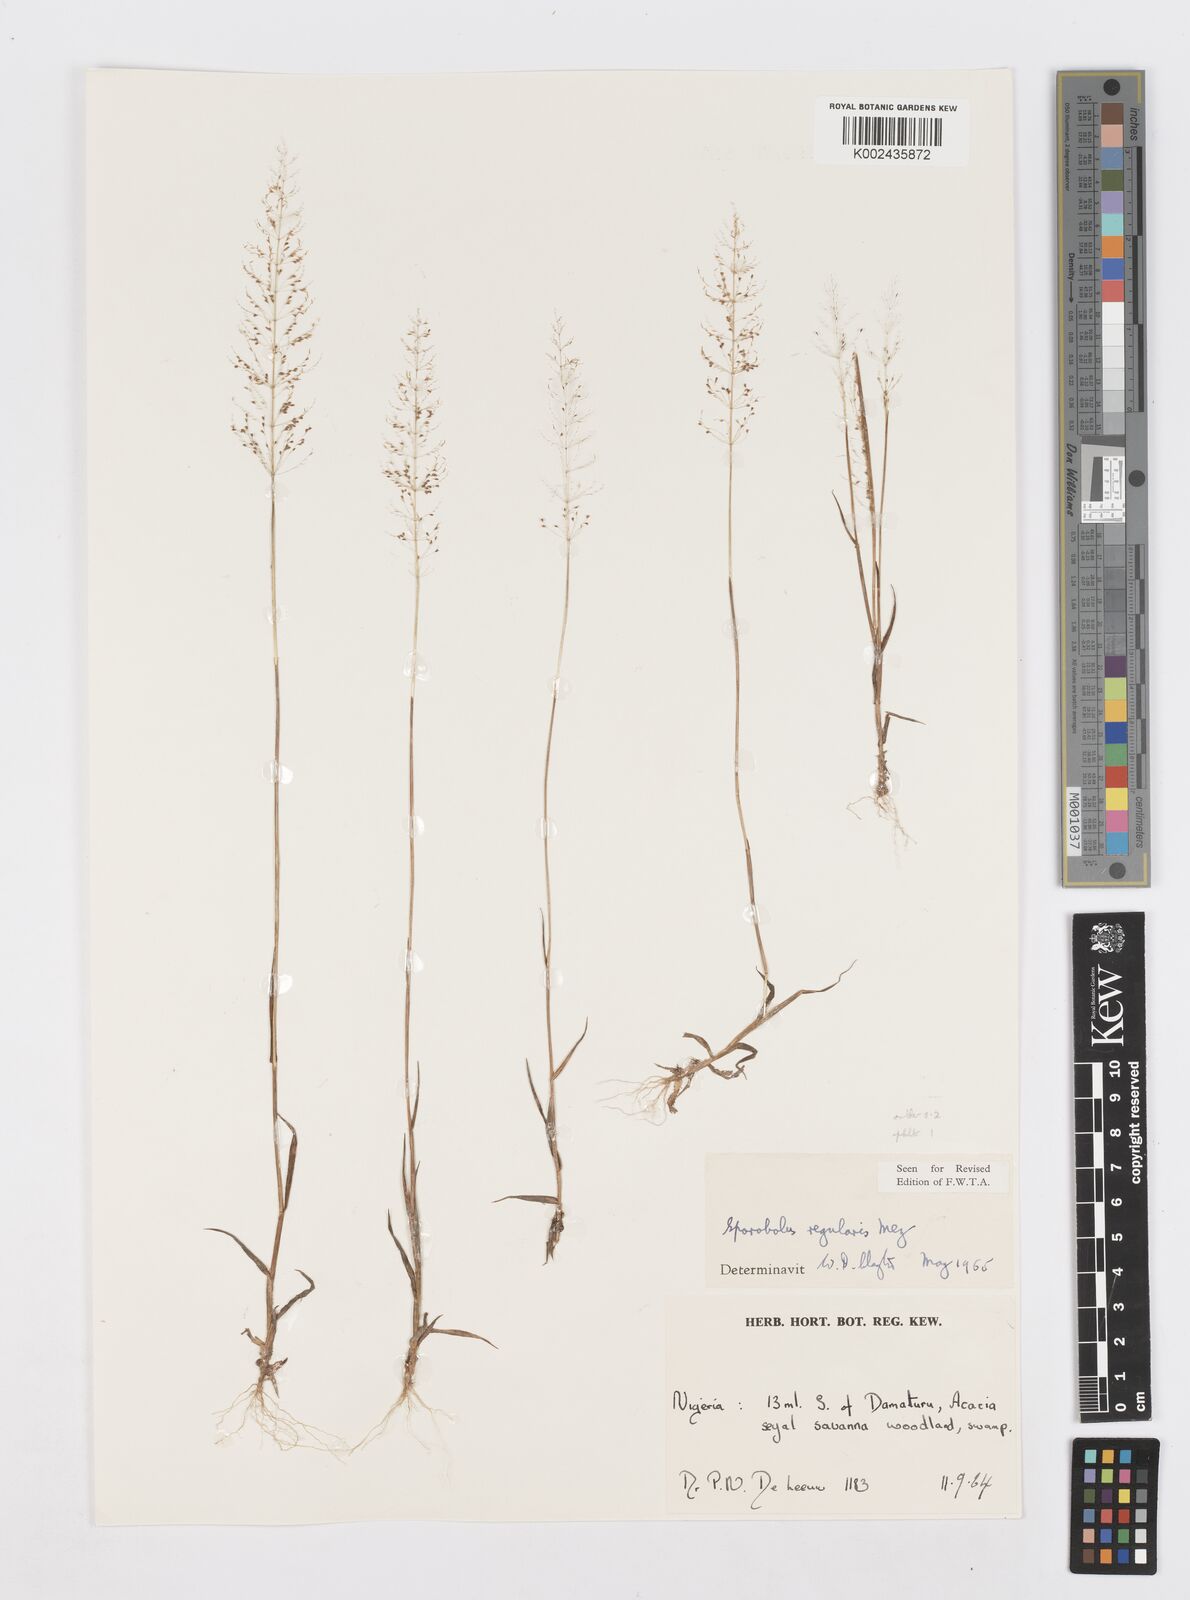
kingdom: Plantae
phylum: Tracheophyta
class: Liliopsida
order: Poales
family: Poaceae
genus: Sporobolus
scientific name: Sporobolus micranthus
